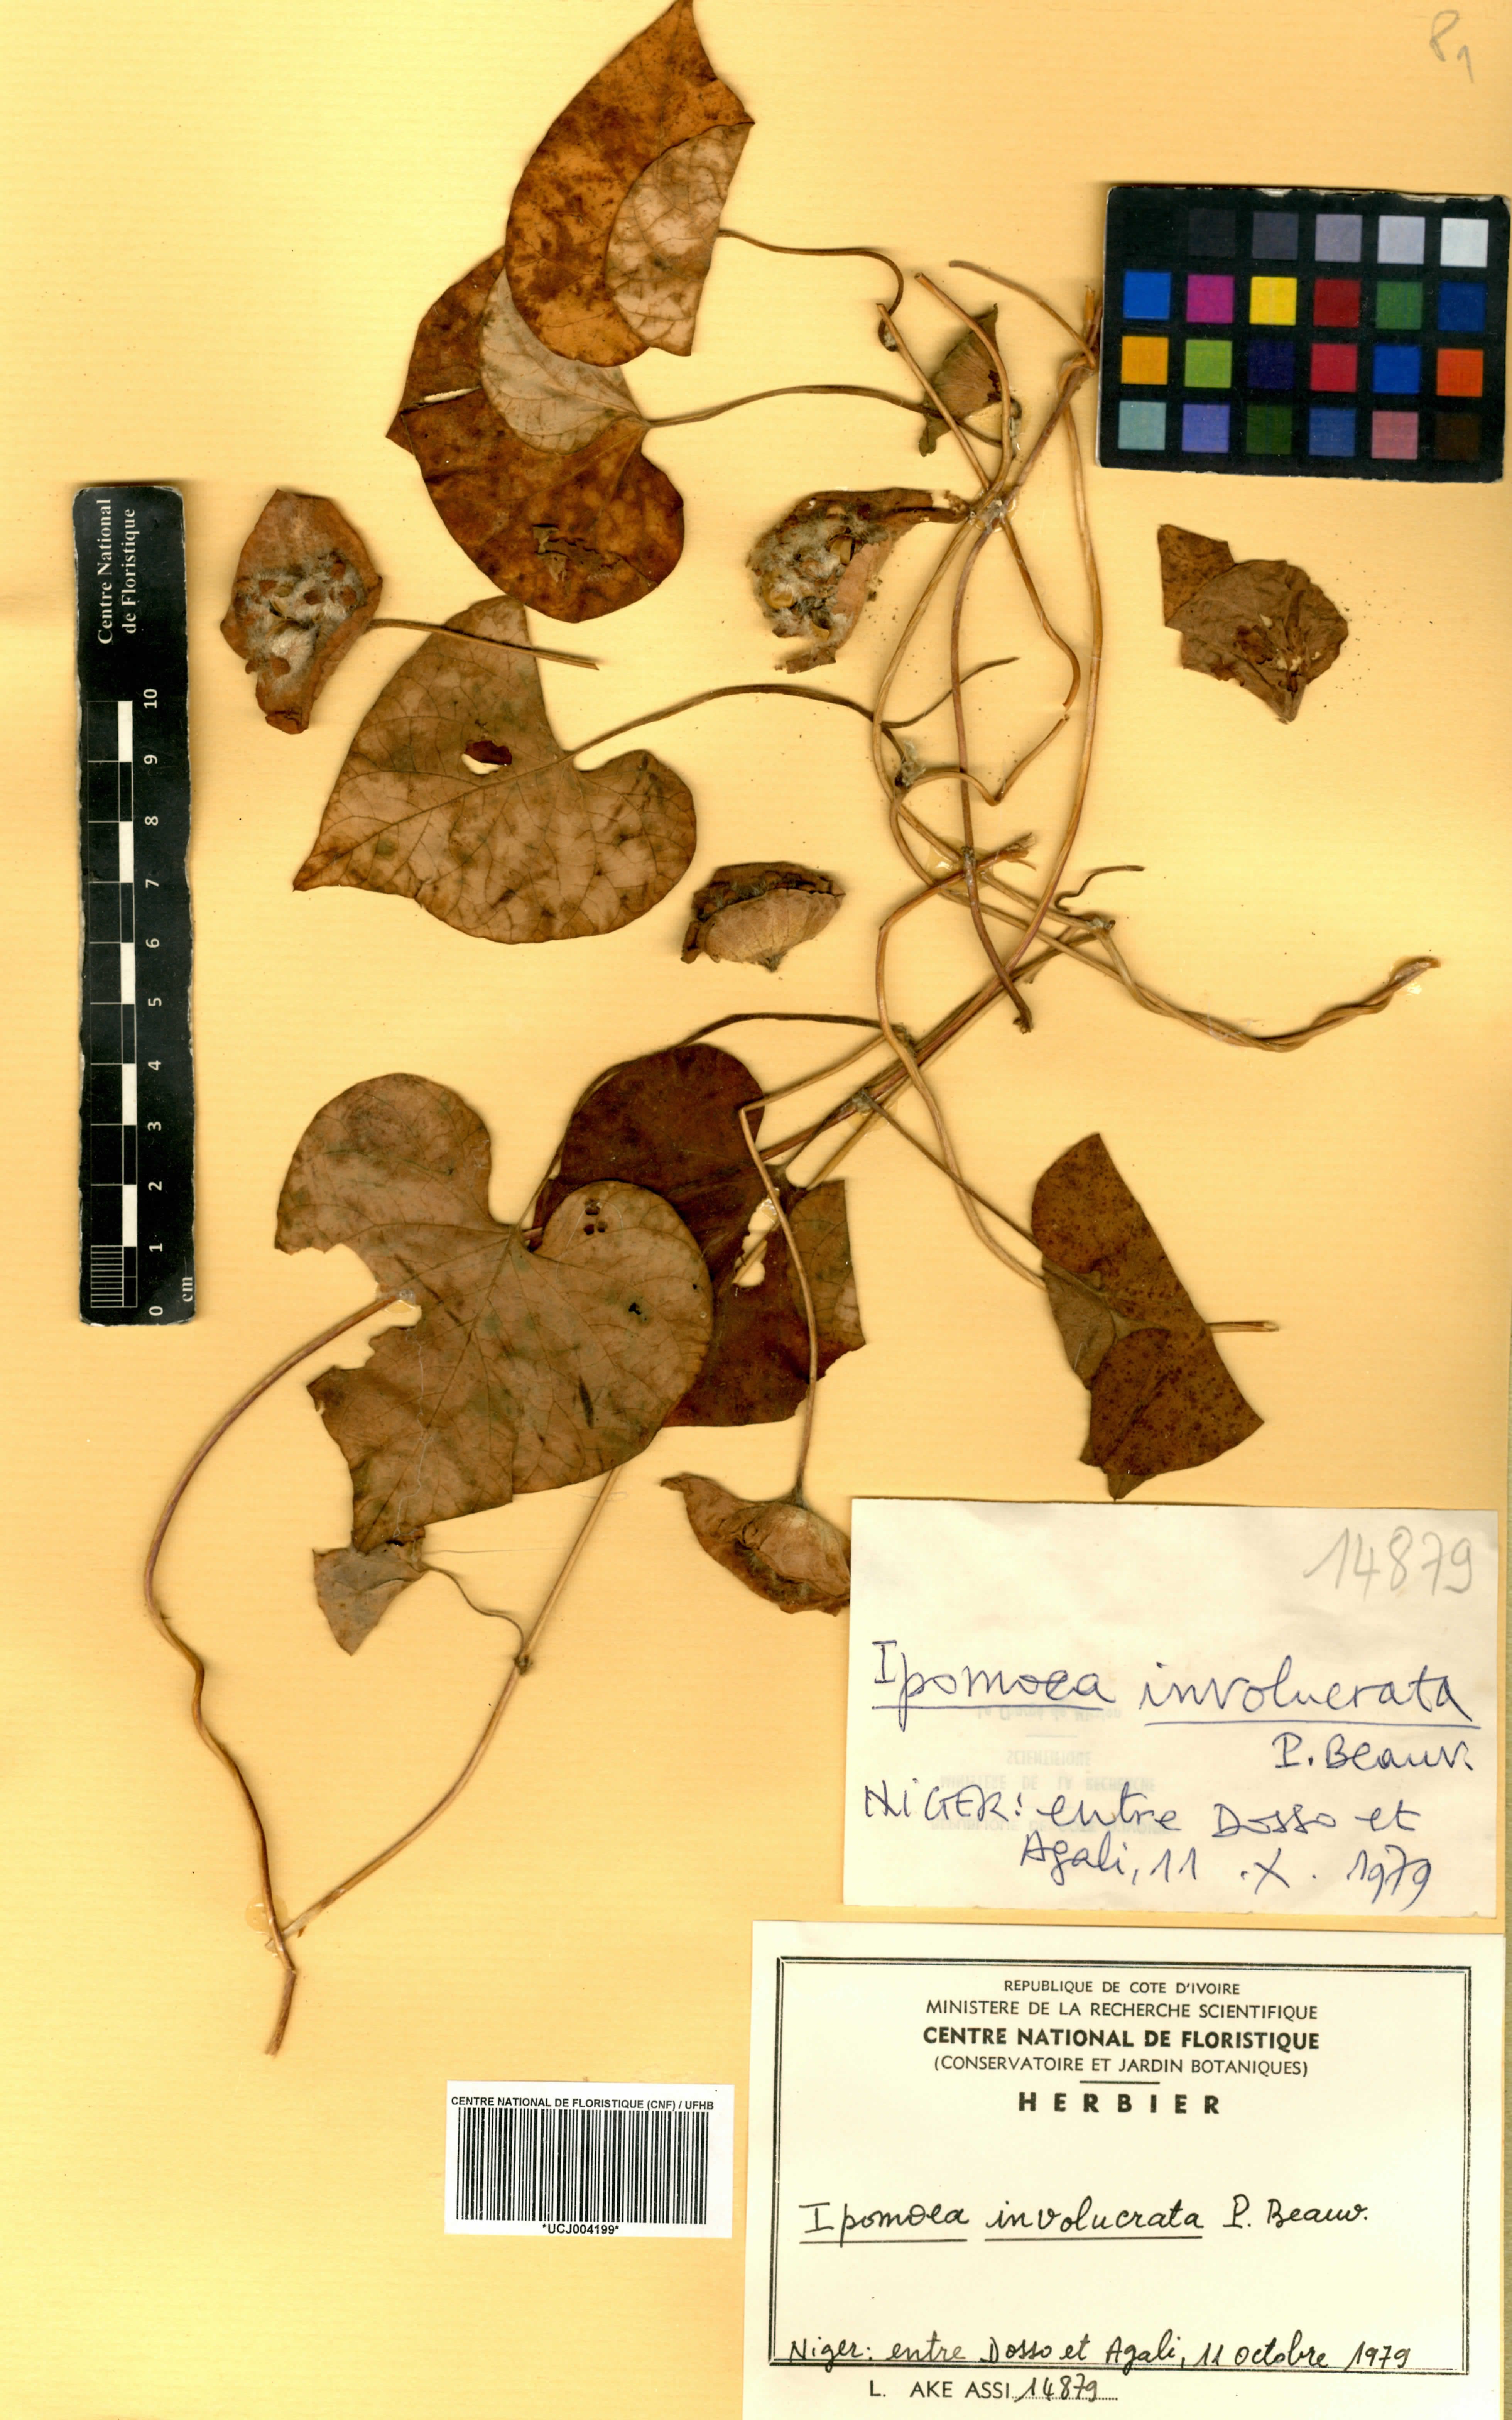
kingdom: Plantae
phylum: Tracheophyta
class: Magnoliopsida
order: Solanales
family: Convolvulaceae
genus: Ipomoea
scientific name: Ipomoea involucrata
